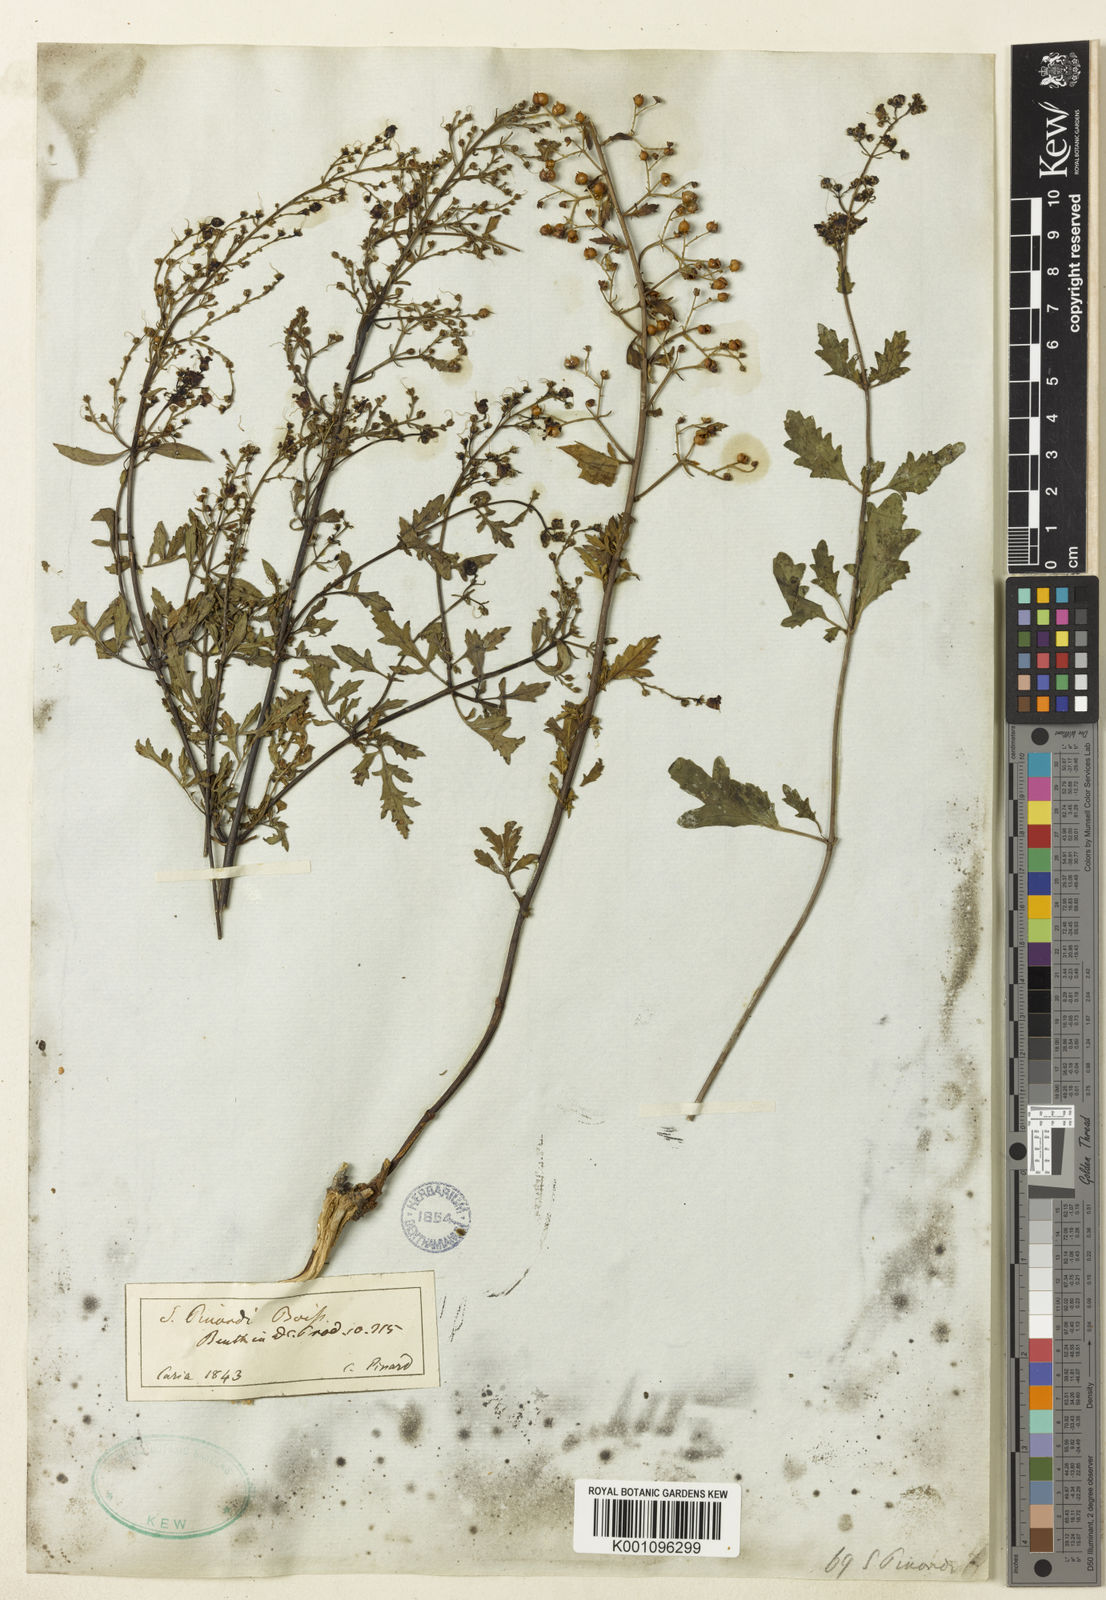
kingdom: Plantae
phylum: Tracheophyta
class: Magnoliopsida
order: Lamiales
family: Scrophulariaceae
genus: Scrophularia
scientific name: Scrophularia pinardii
